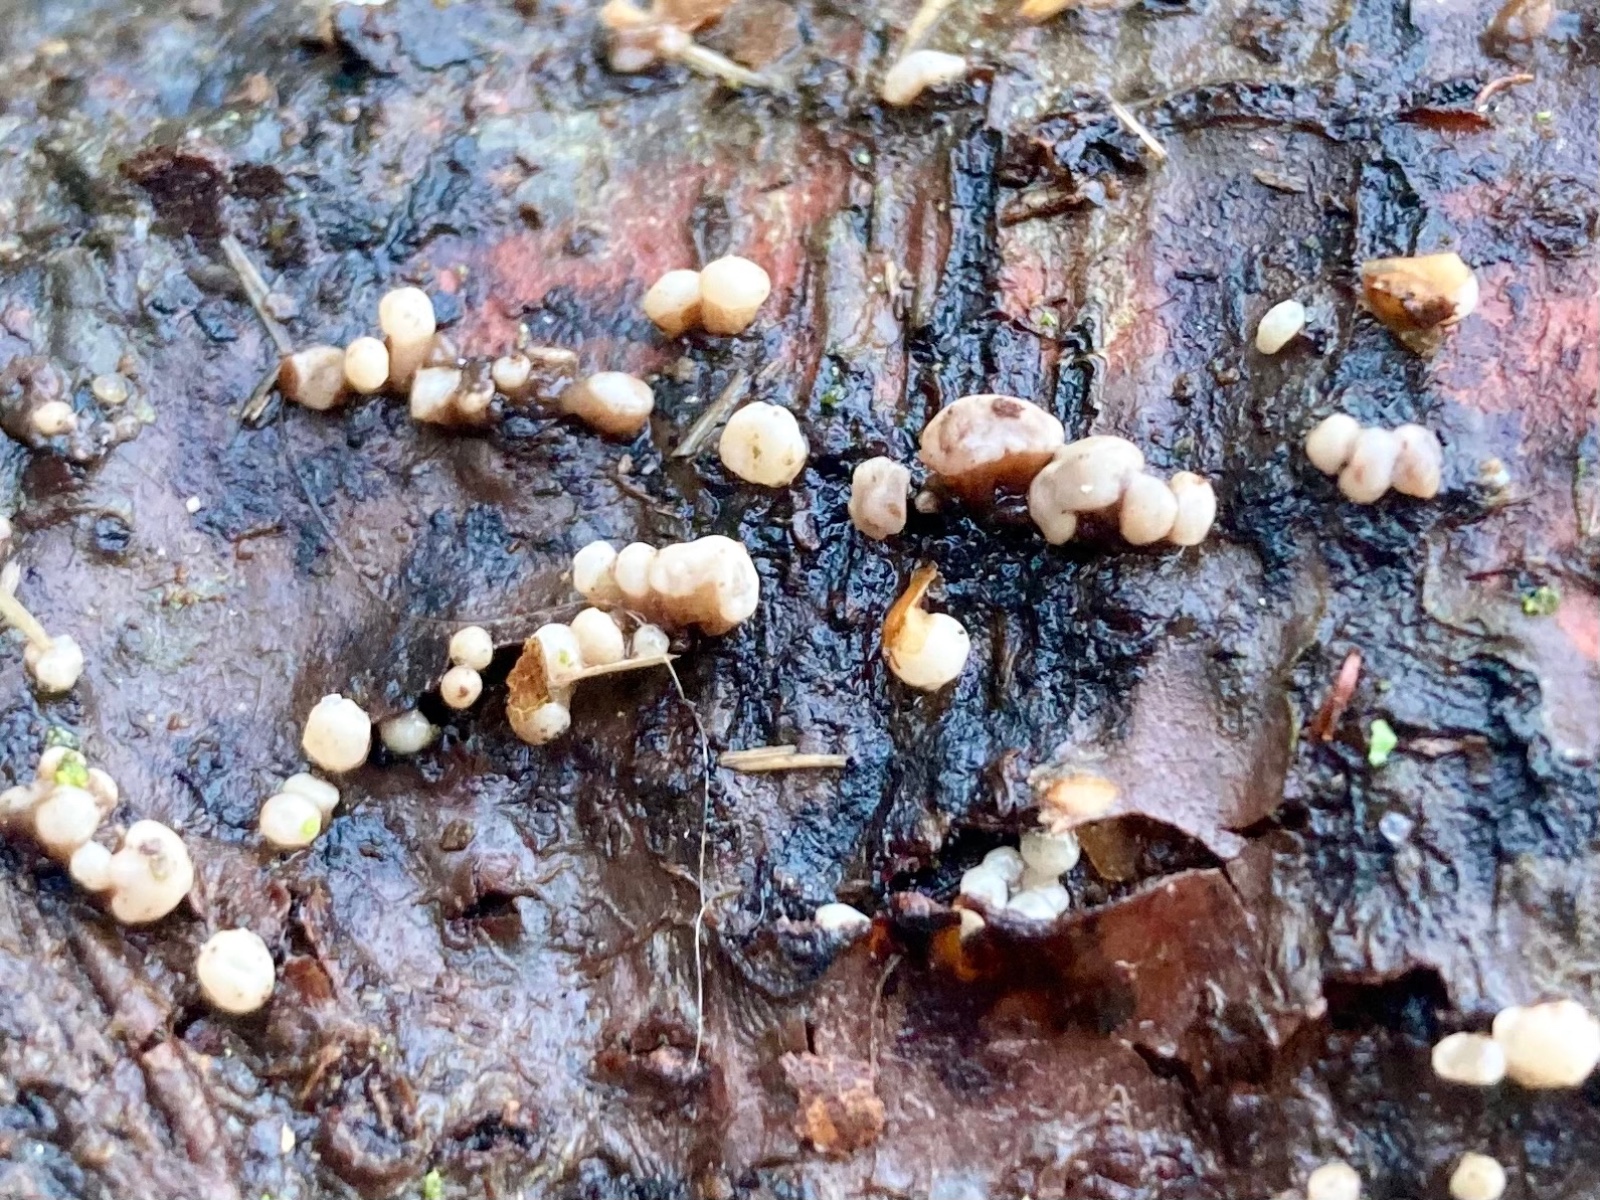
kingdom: Fungi
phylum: Ascomycota
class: Leotiomycetes
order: Helotiales
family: Gelatinodiscaceae
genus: Ascocoryne
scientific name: Ascocoryne albida
